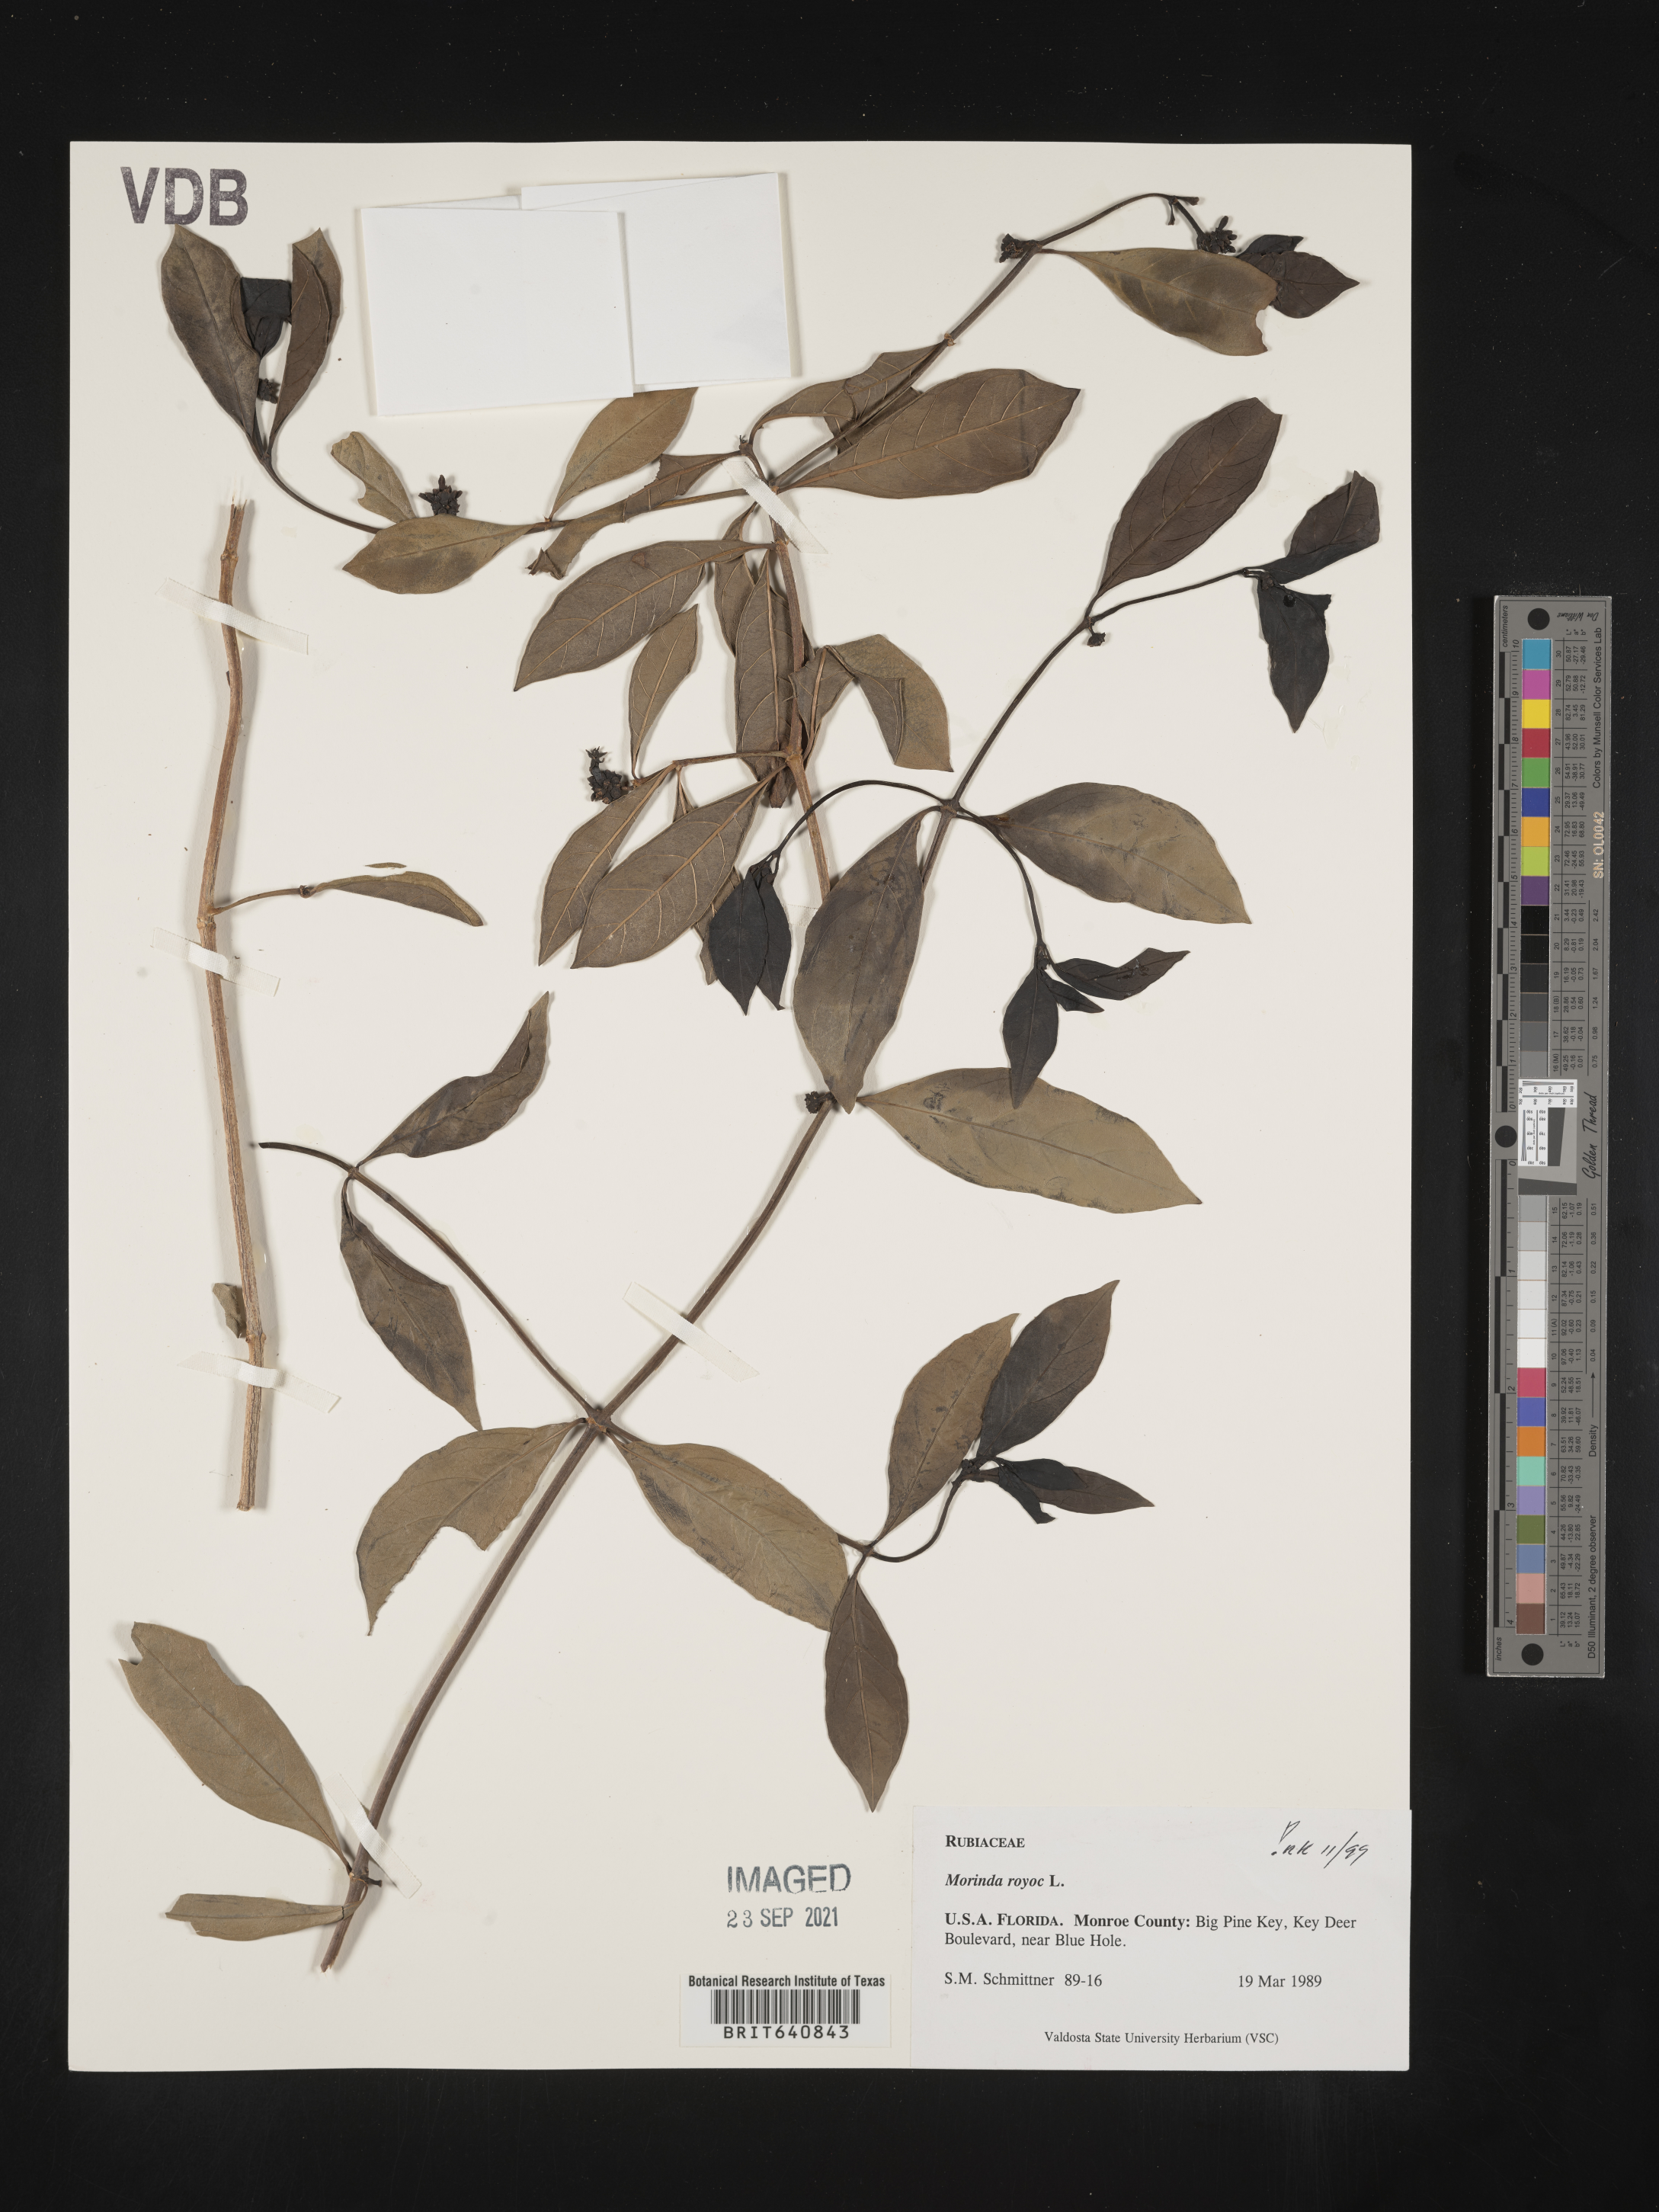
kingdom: Plantae
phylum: Tracheophyta
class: Magnoliopsida
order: Gentianales
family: Rubiaceae
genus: Morinda
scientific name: Morinda
